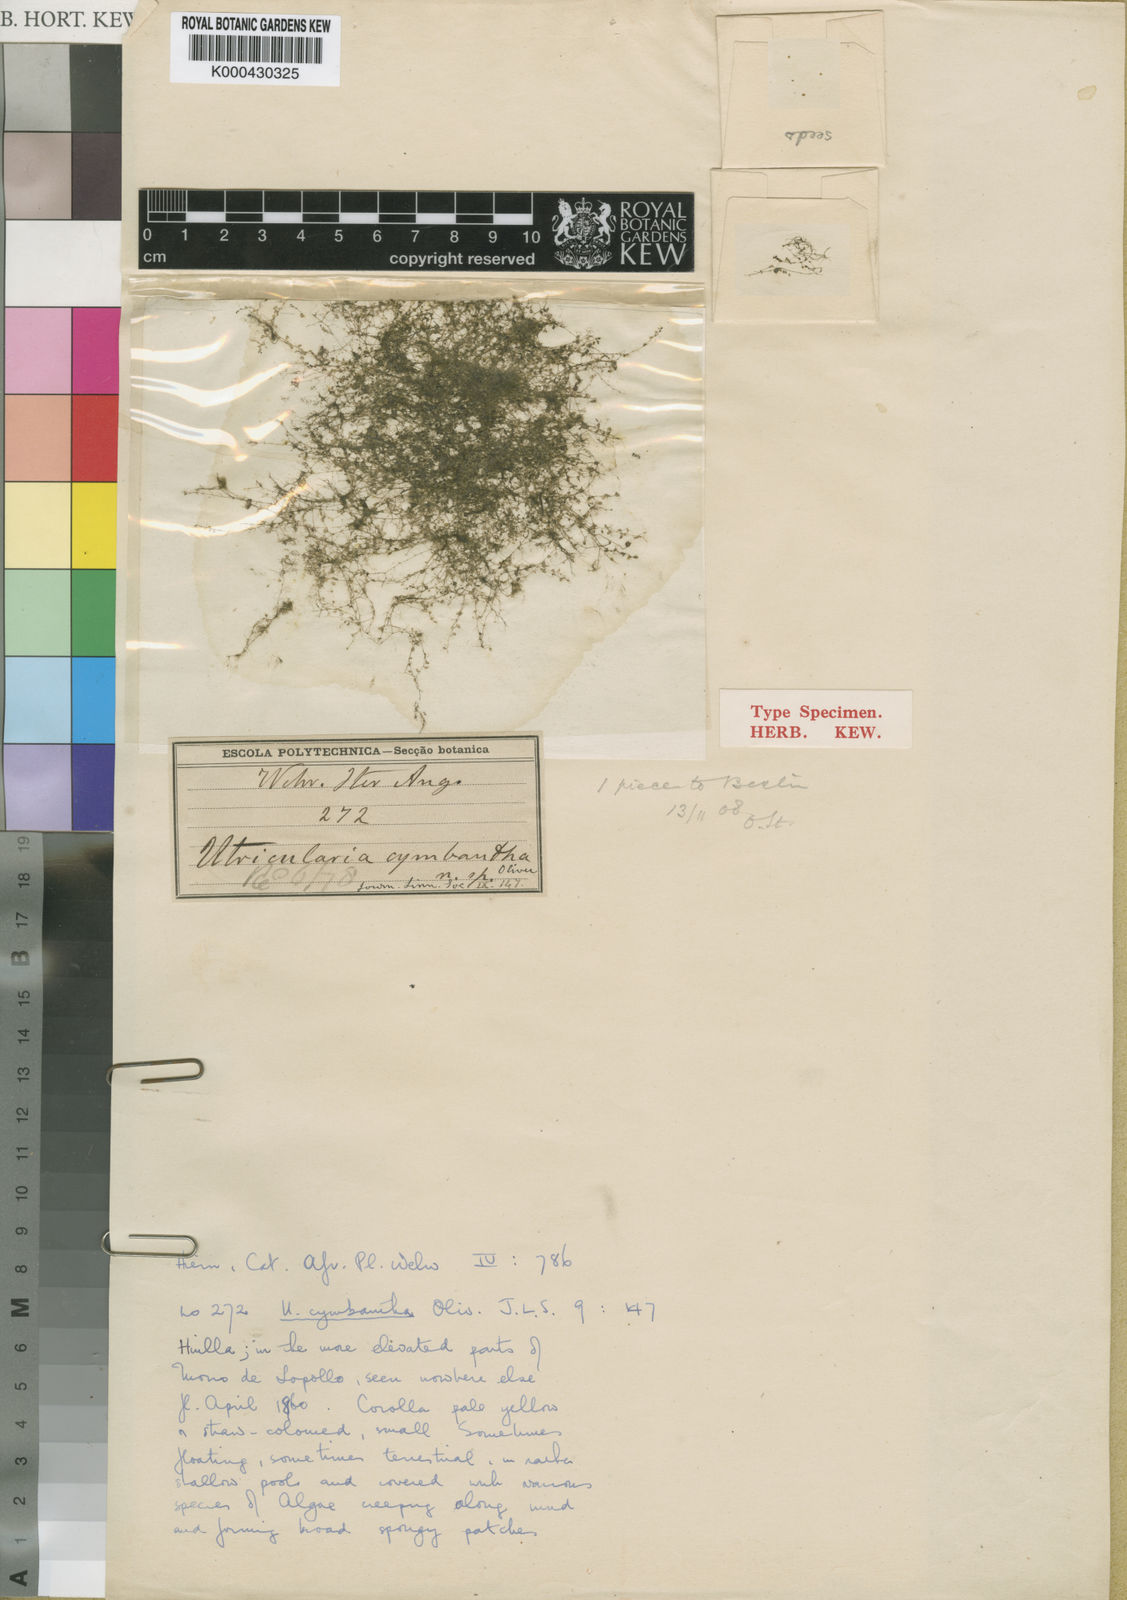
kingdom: Plantae
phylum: Tracheophyta
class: Magnoliopsida
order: Lamiales
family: Lentibulariaceae
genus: Utricularia
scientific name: Utricularia cymbantha
